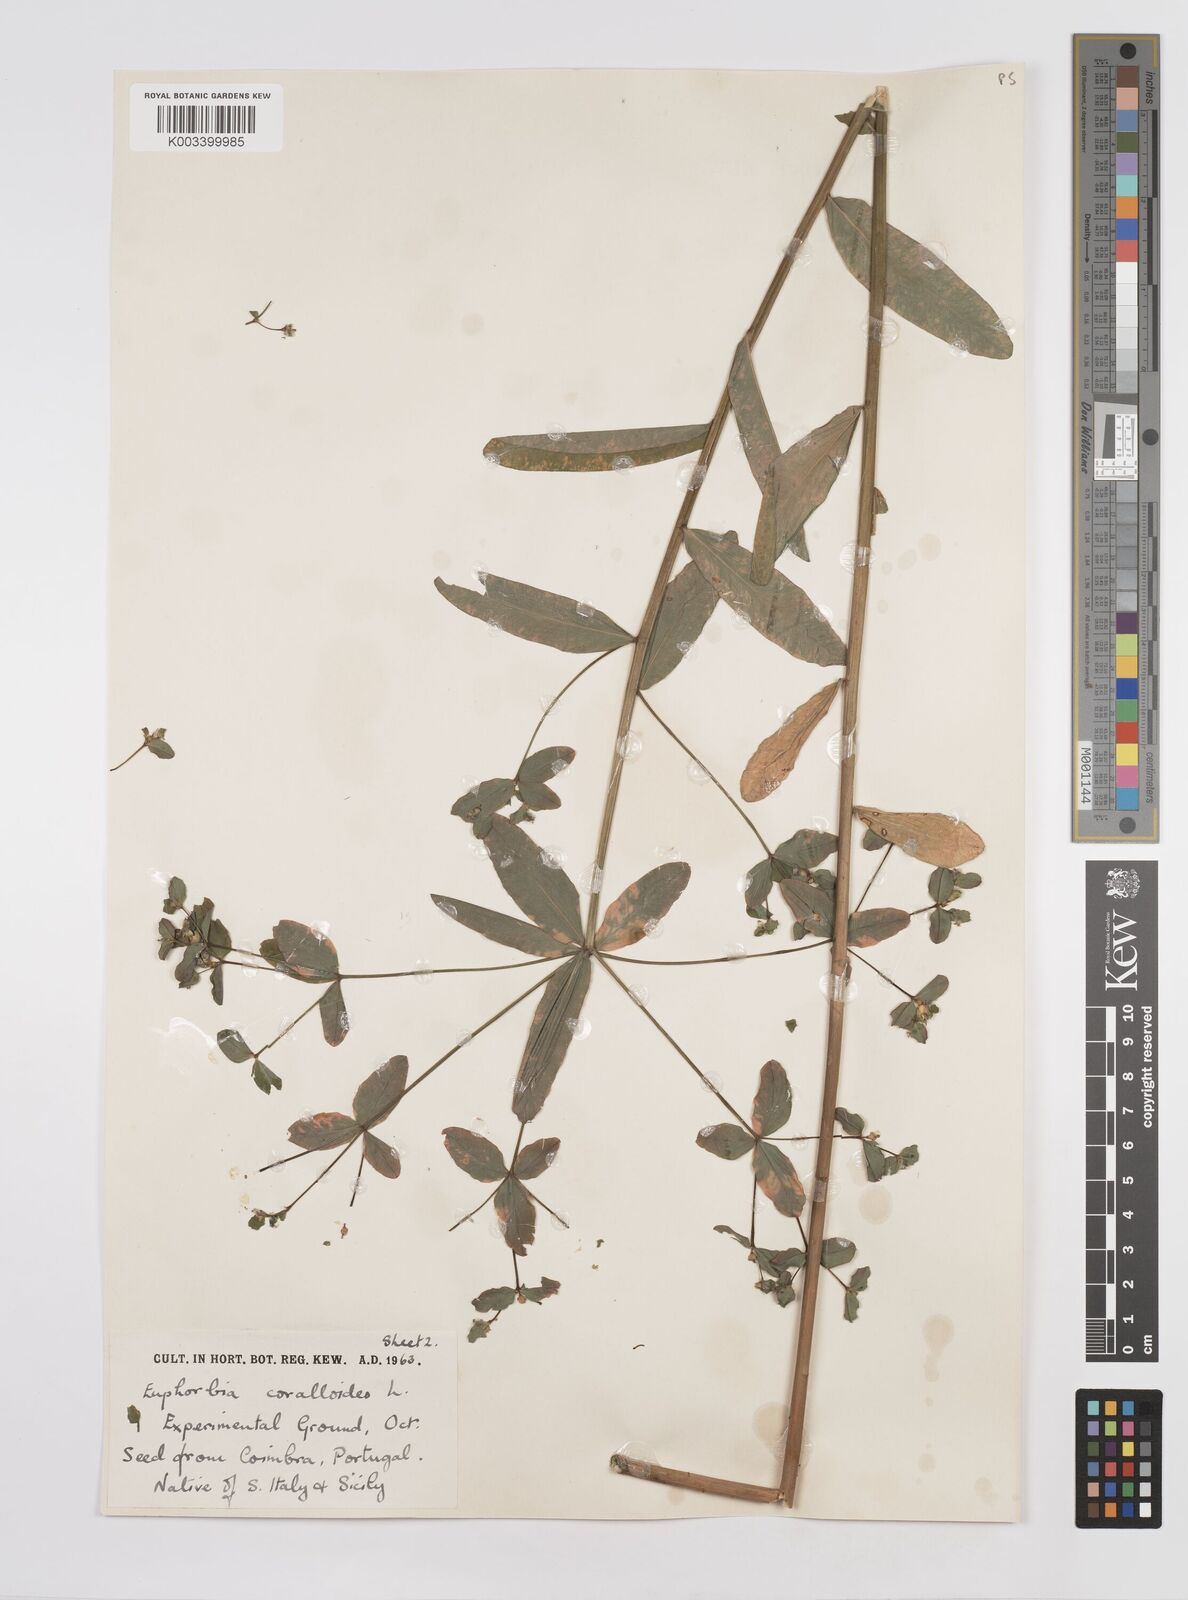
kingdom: Plantae
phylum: Tracheophyta
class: Magnoliopsida
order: Malpighiales
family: Euphorbiaceae
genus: Euphorbia
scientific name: Euphorbia corallioides
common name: Coral spurge
